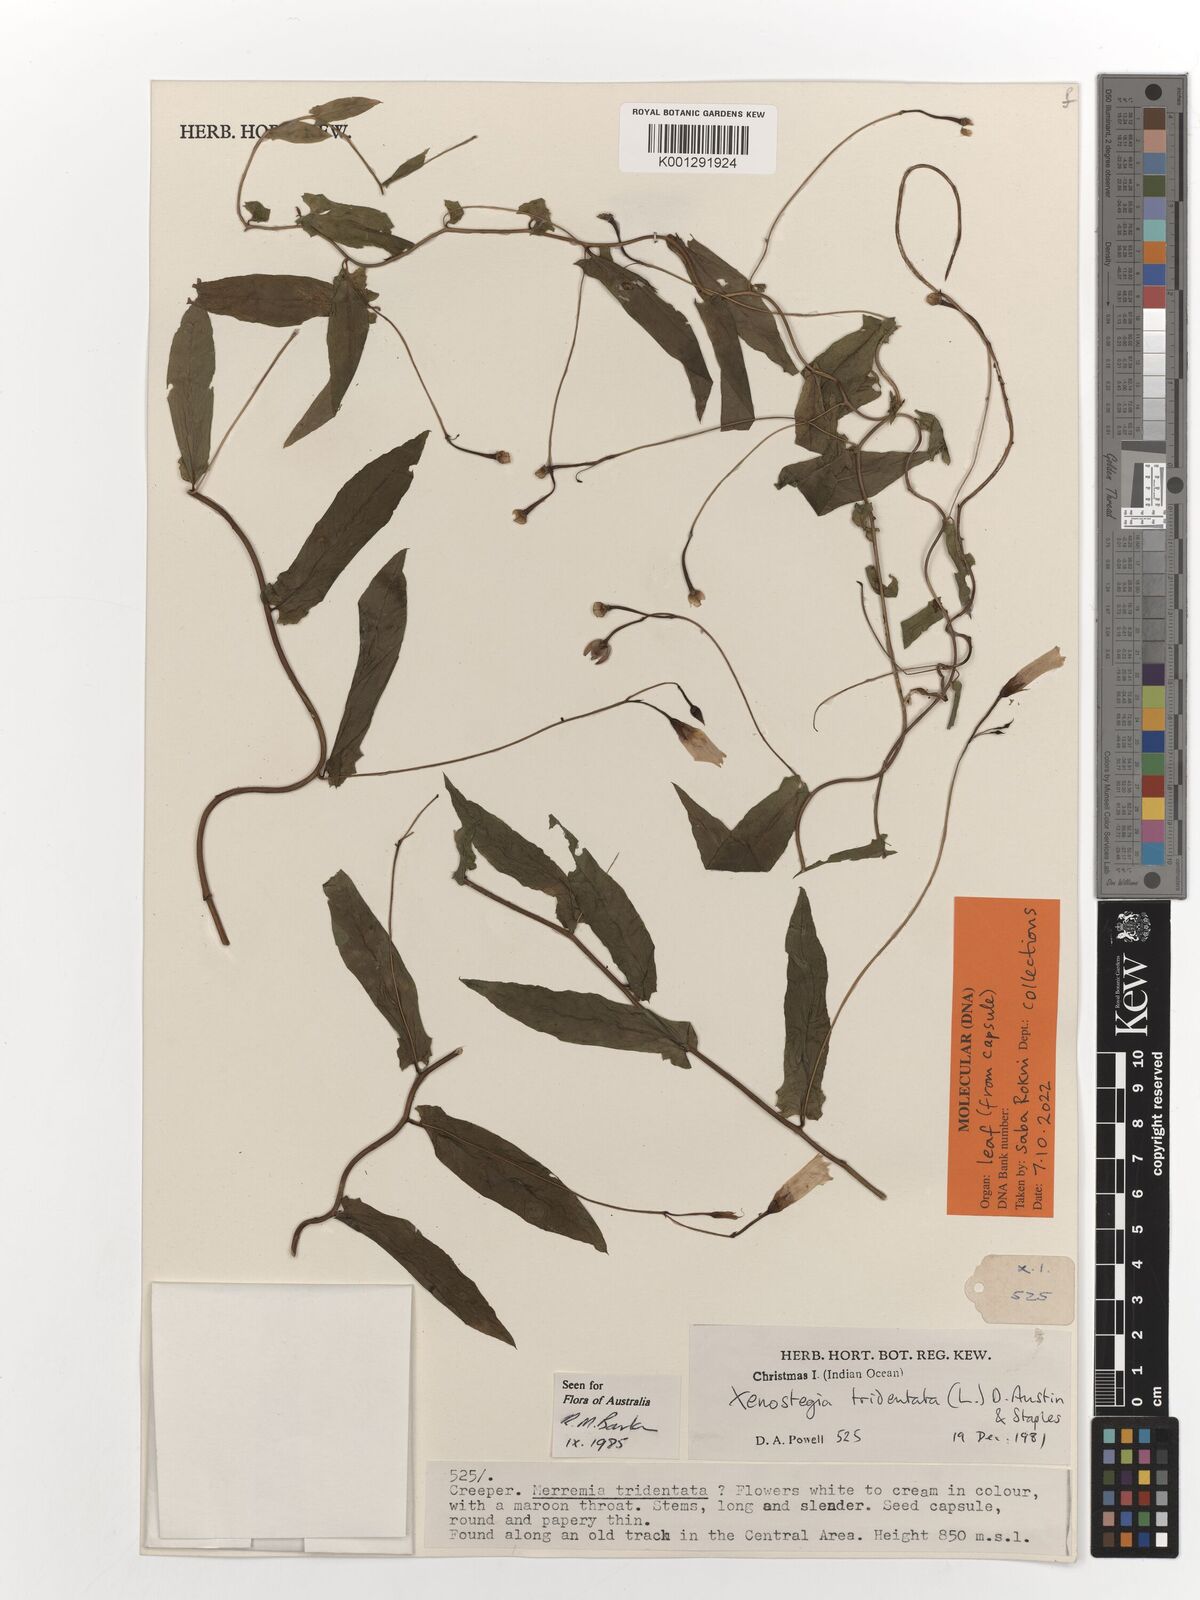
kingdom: Plantae
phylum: Tracheophyta
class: Magnoliopsida
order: Solanales
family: Convolvulaceae
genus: Xenostegia
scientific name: Xenostegia tridentata
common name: African morningvine
